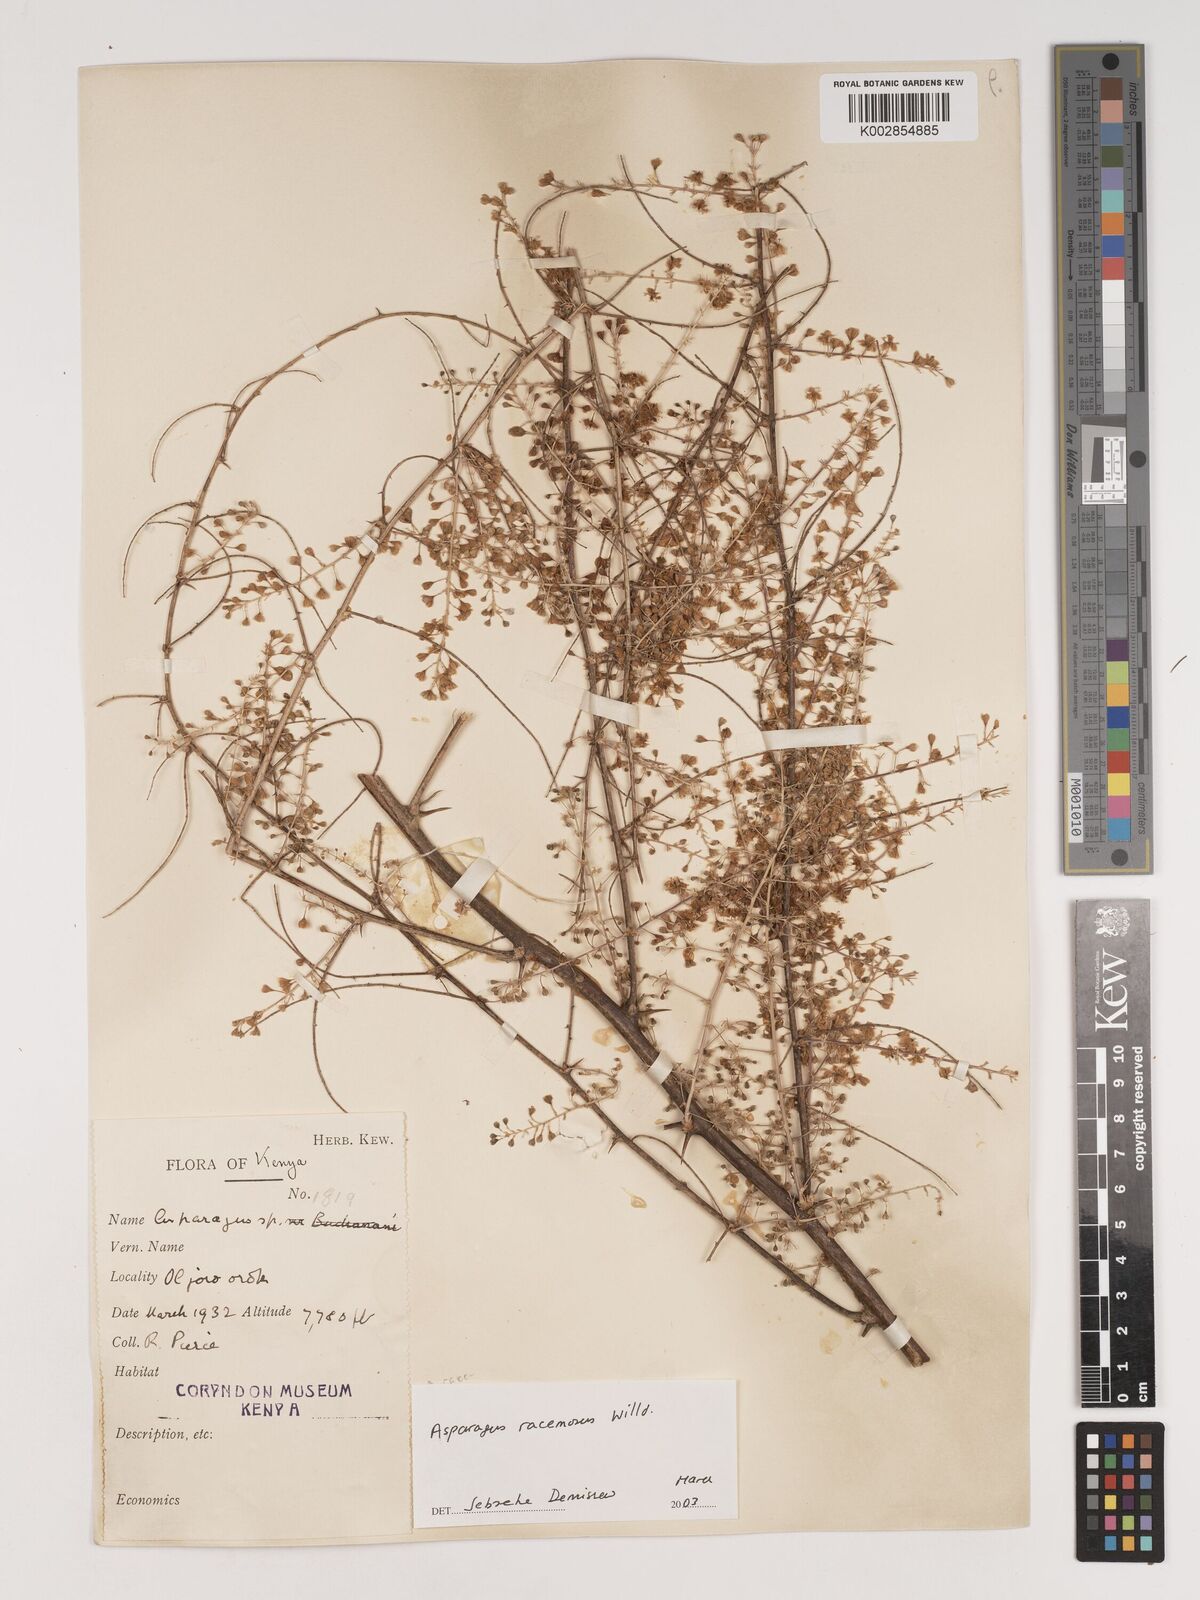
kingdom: Plantae
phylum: Tracheophyta
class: Liliopsida
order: Asparagales
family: Asparagaceae
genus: Asparagus
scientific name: Asparagus racemosus
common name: Asparagus-fern
